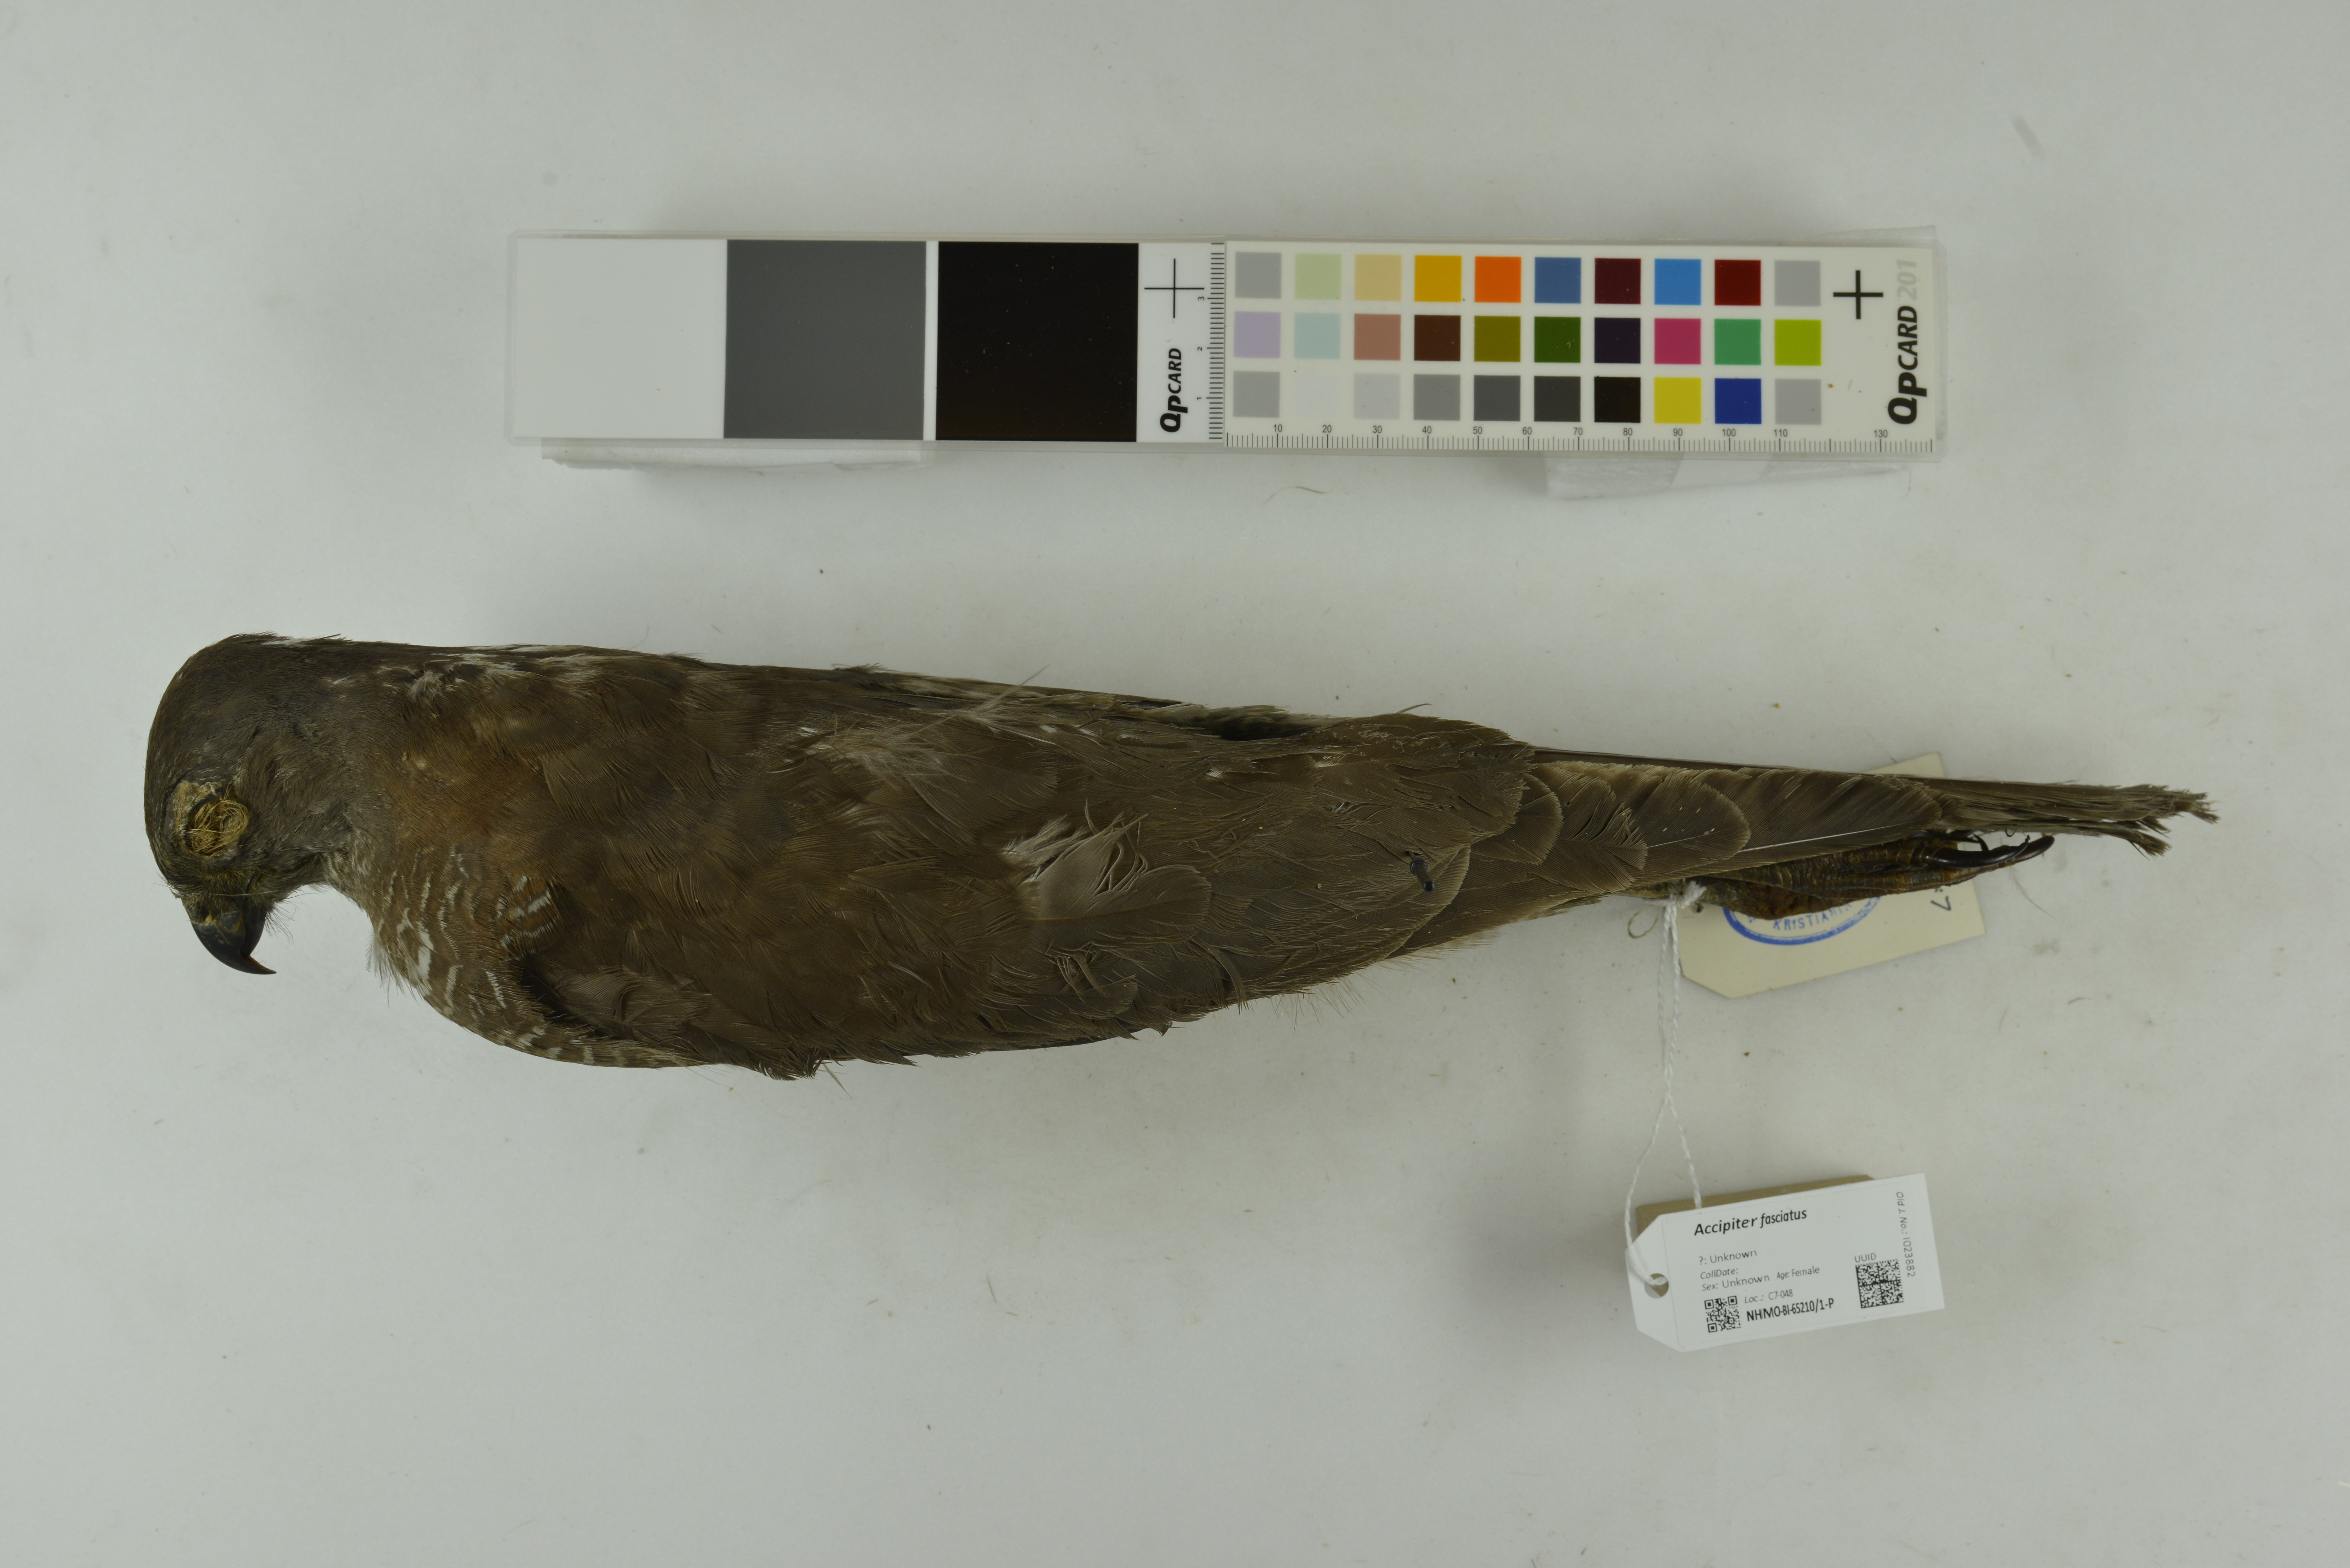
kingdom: Animalia
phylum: Chordata
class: Aves
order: Accipitriformes
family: Accipitridae
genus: Accipiter
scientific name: Accipiter fasciatus
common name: Brown goshawk
